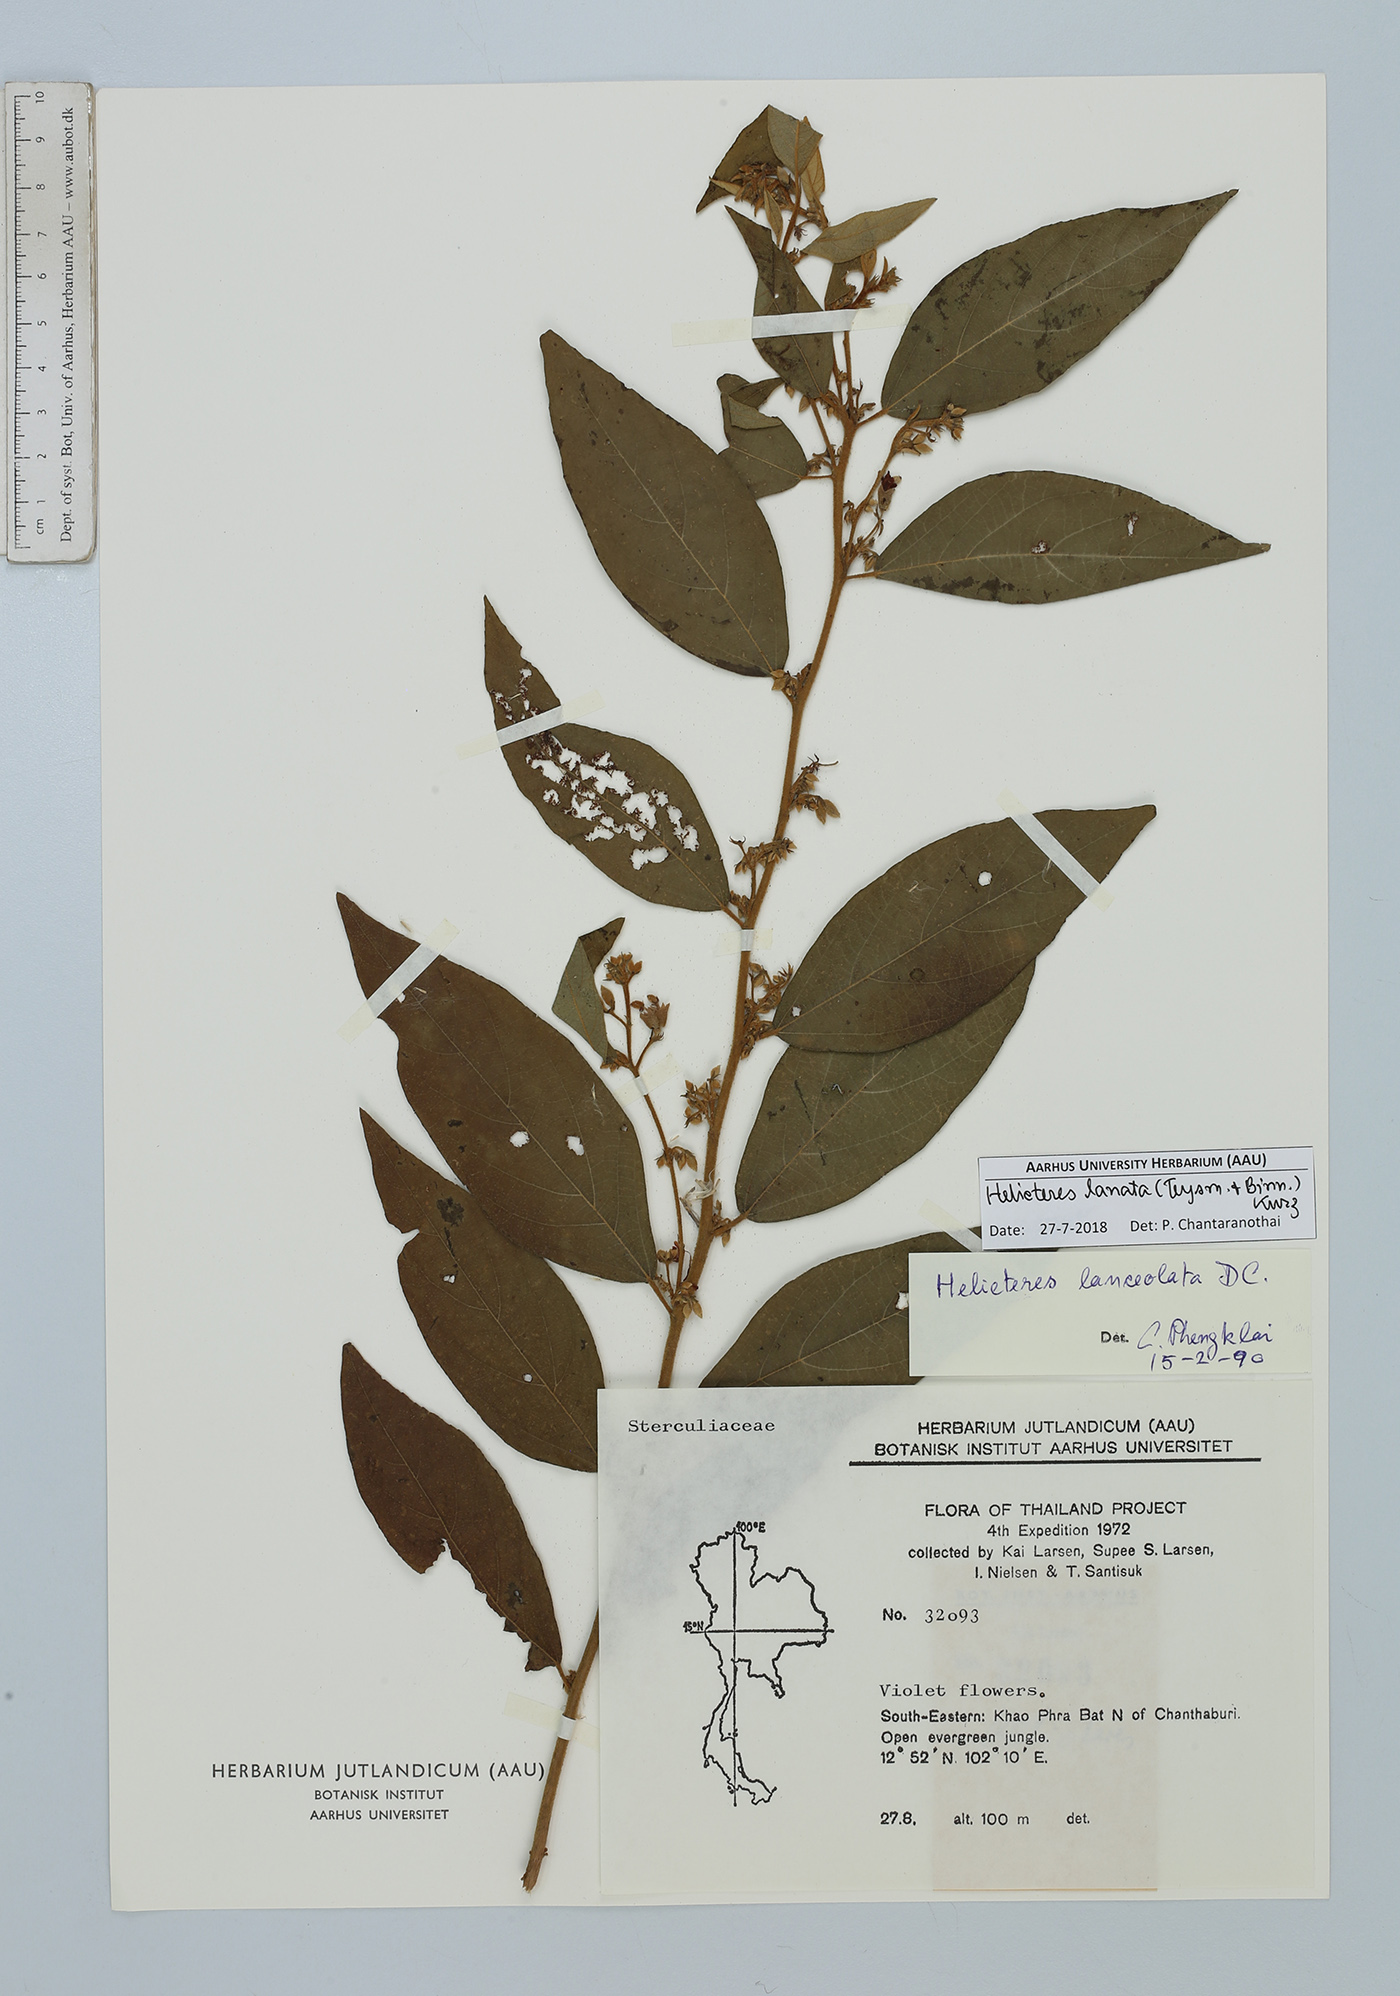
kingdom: Plantae
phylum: Tracheophyta
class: Magnoliopsida
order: Malvales
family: Malvaceae
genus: Helicteres
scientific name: Helicteres lanata
